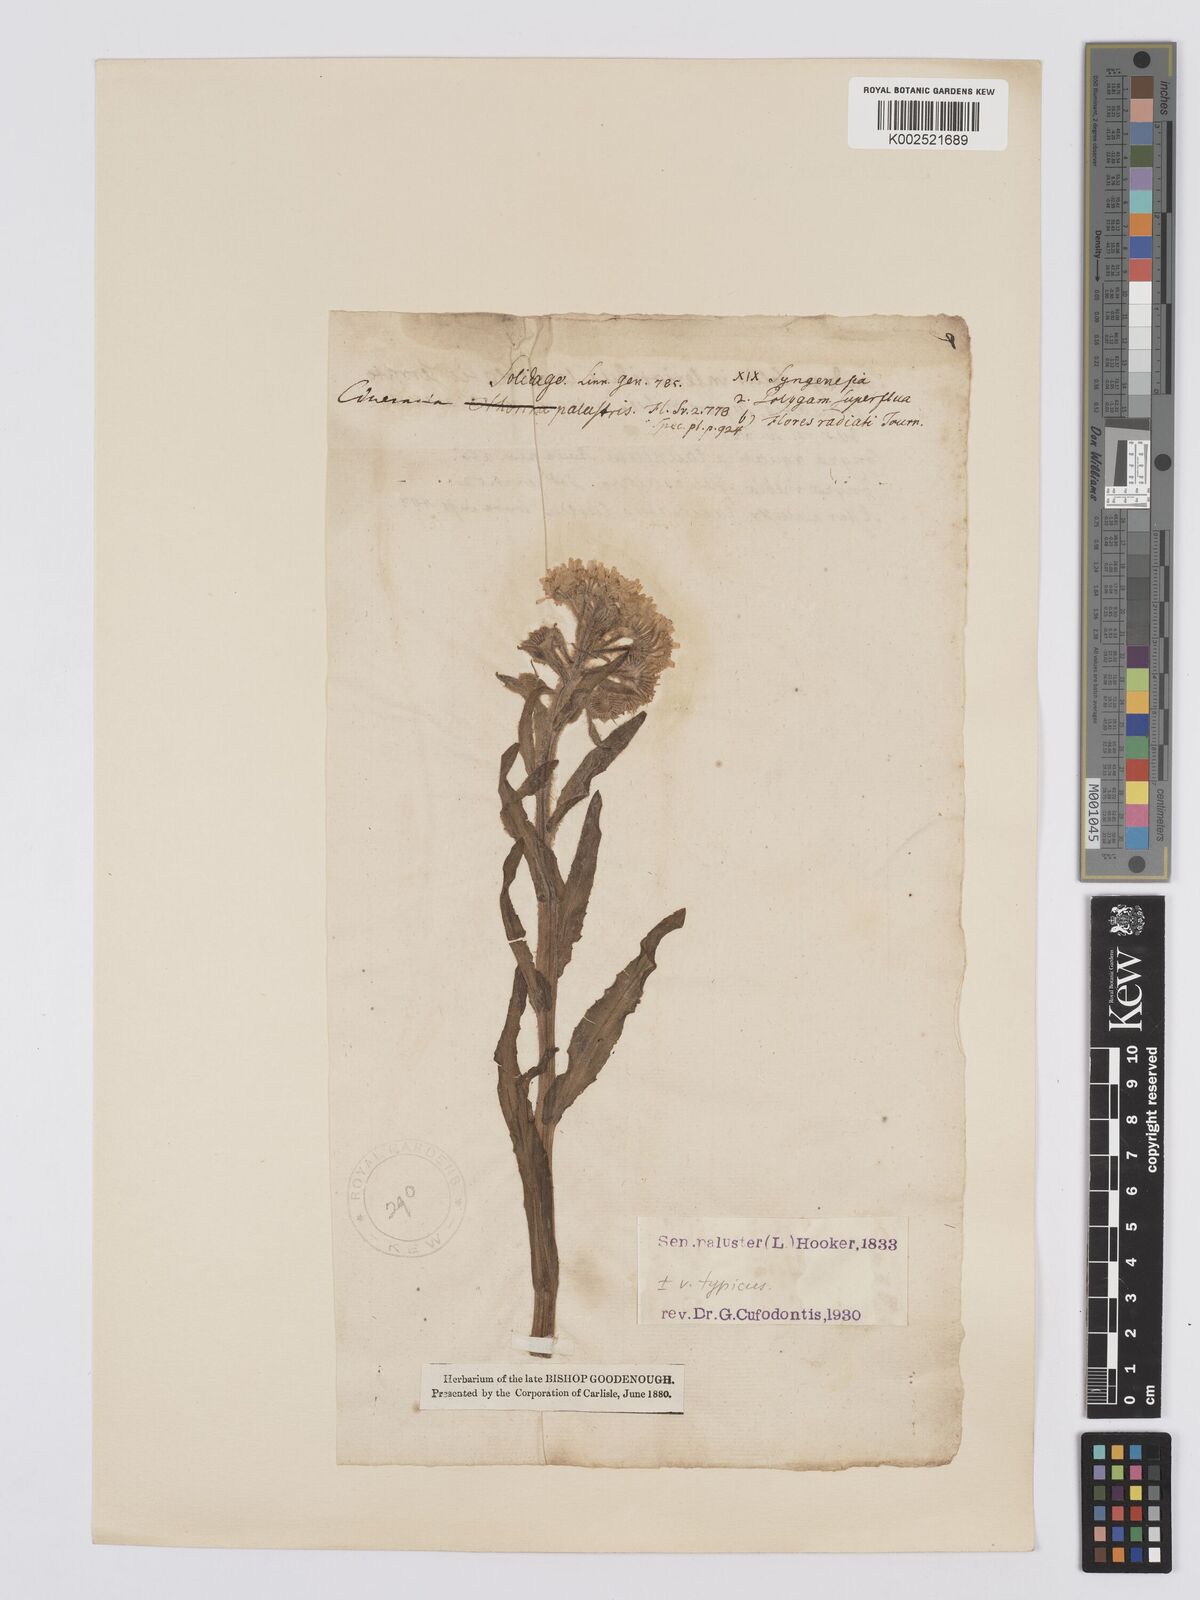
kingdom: Plantae
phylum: Tracheophyta
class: Magnoliopsida
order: Asterales
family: Asteraceae
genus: Tephroseris
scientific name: Tephroseris palustris
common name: Marsh fleawort
